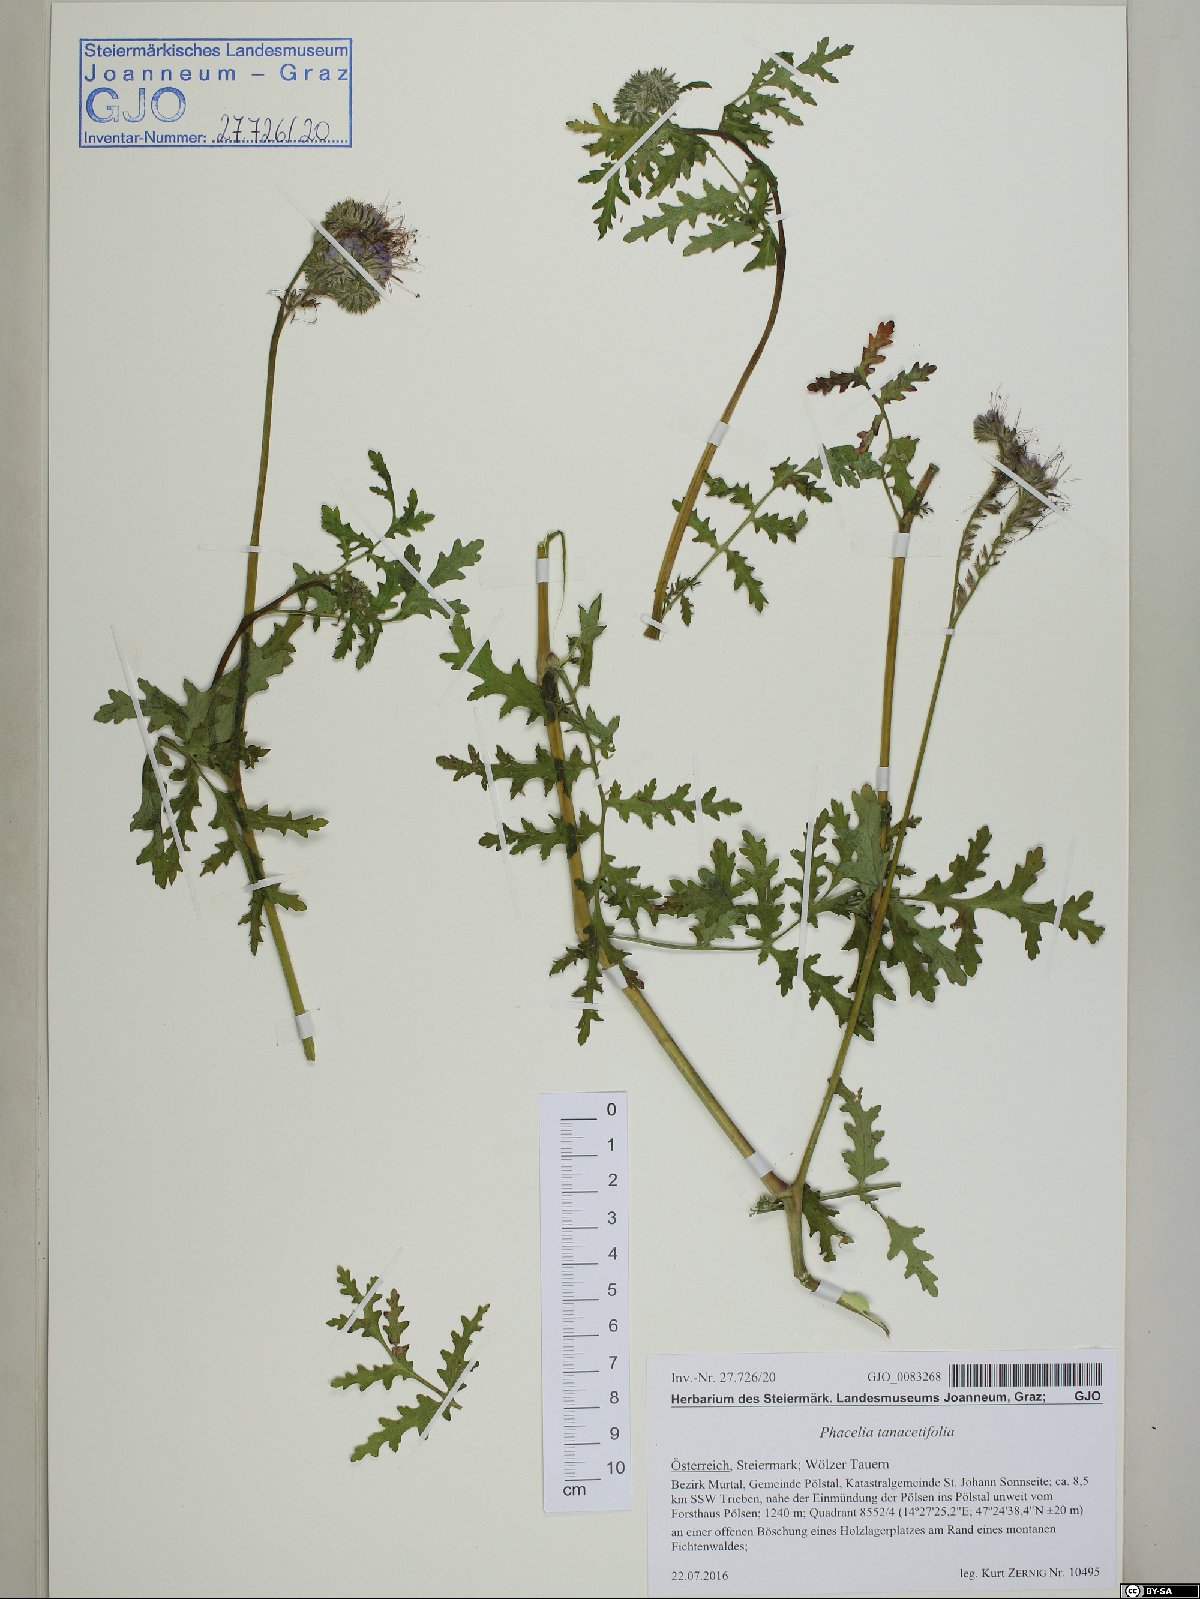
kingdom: Plantae
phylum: Tracheophyta
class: Magnoliopsida
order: Boraginales
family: Hydrophyllaceae
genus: Phacelia
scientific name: Phacelia tanacetifolia
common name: Phacelia
